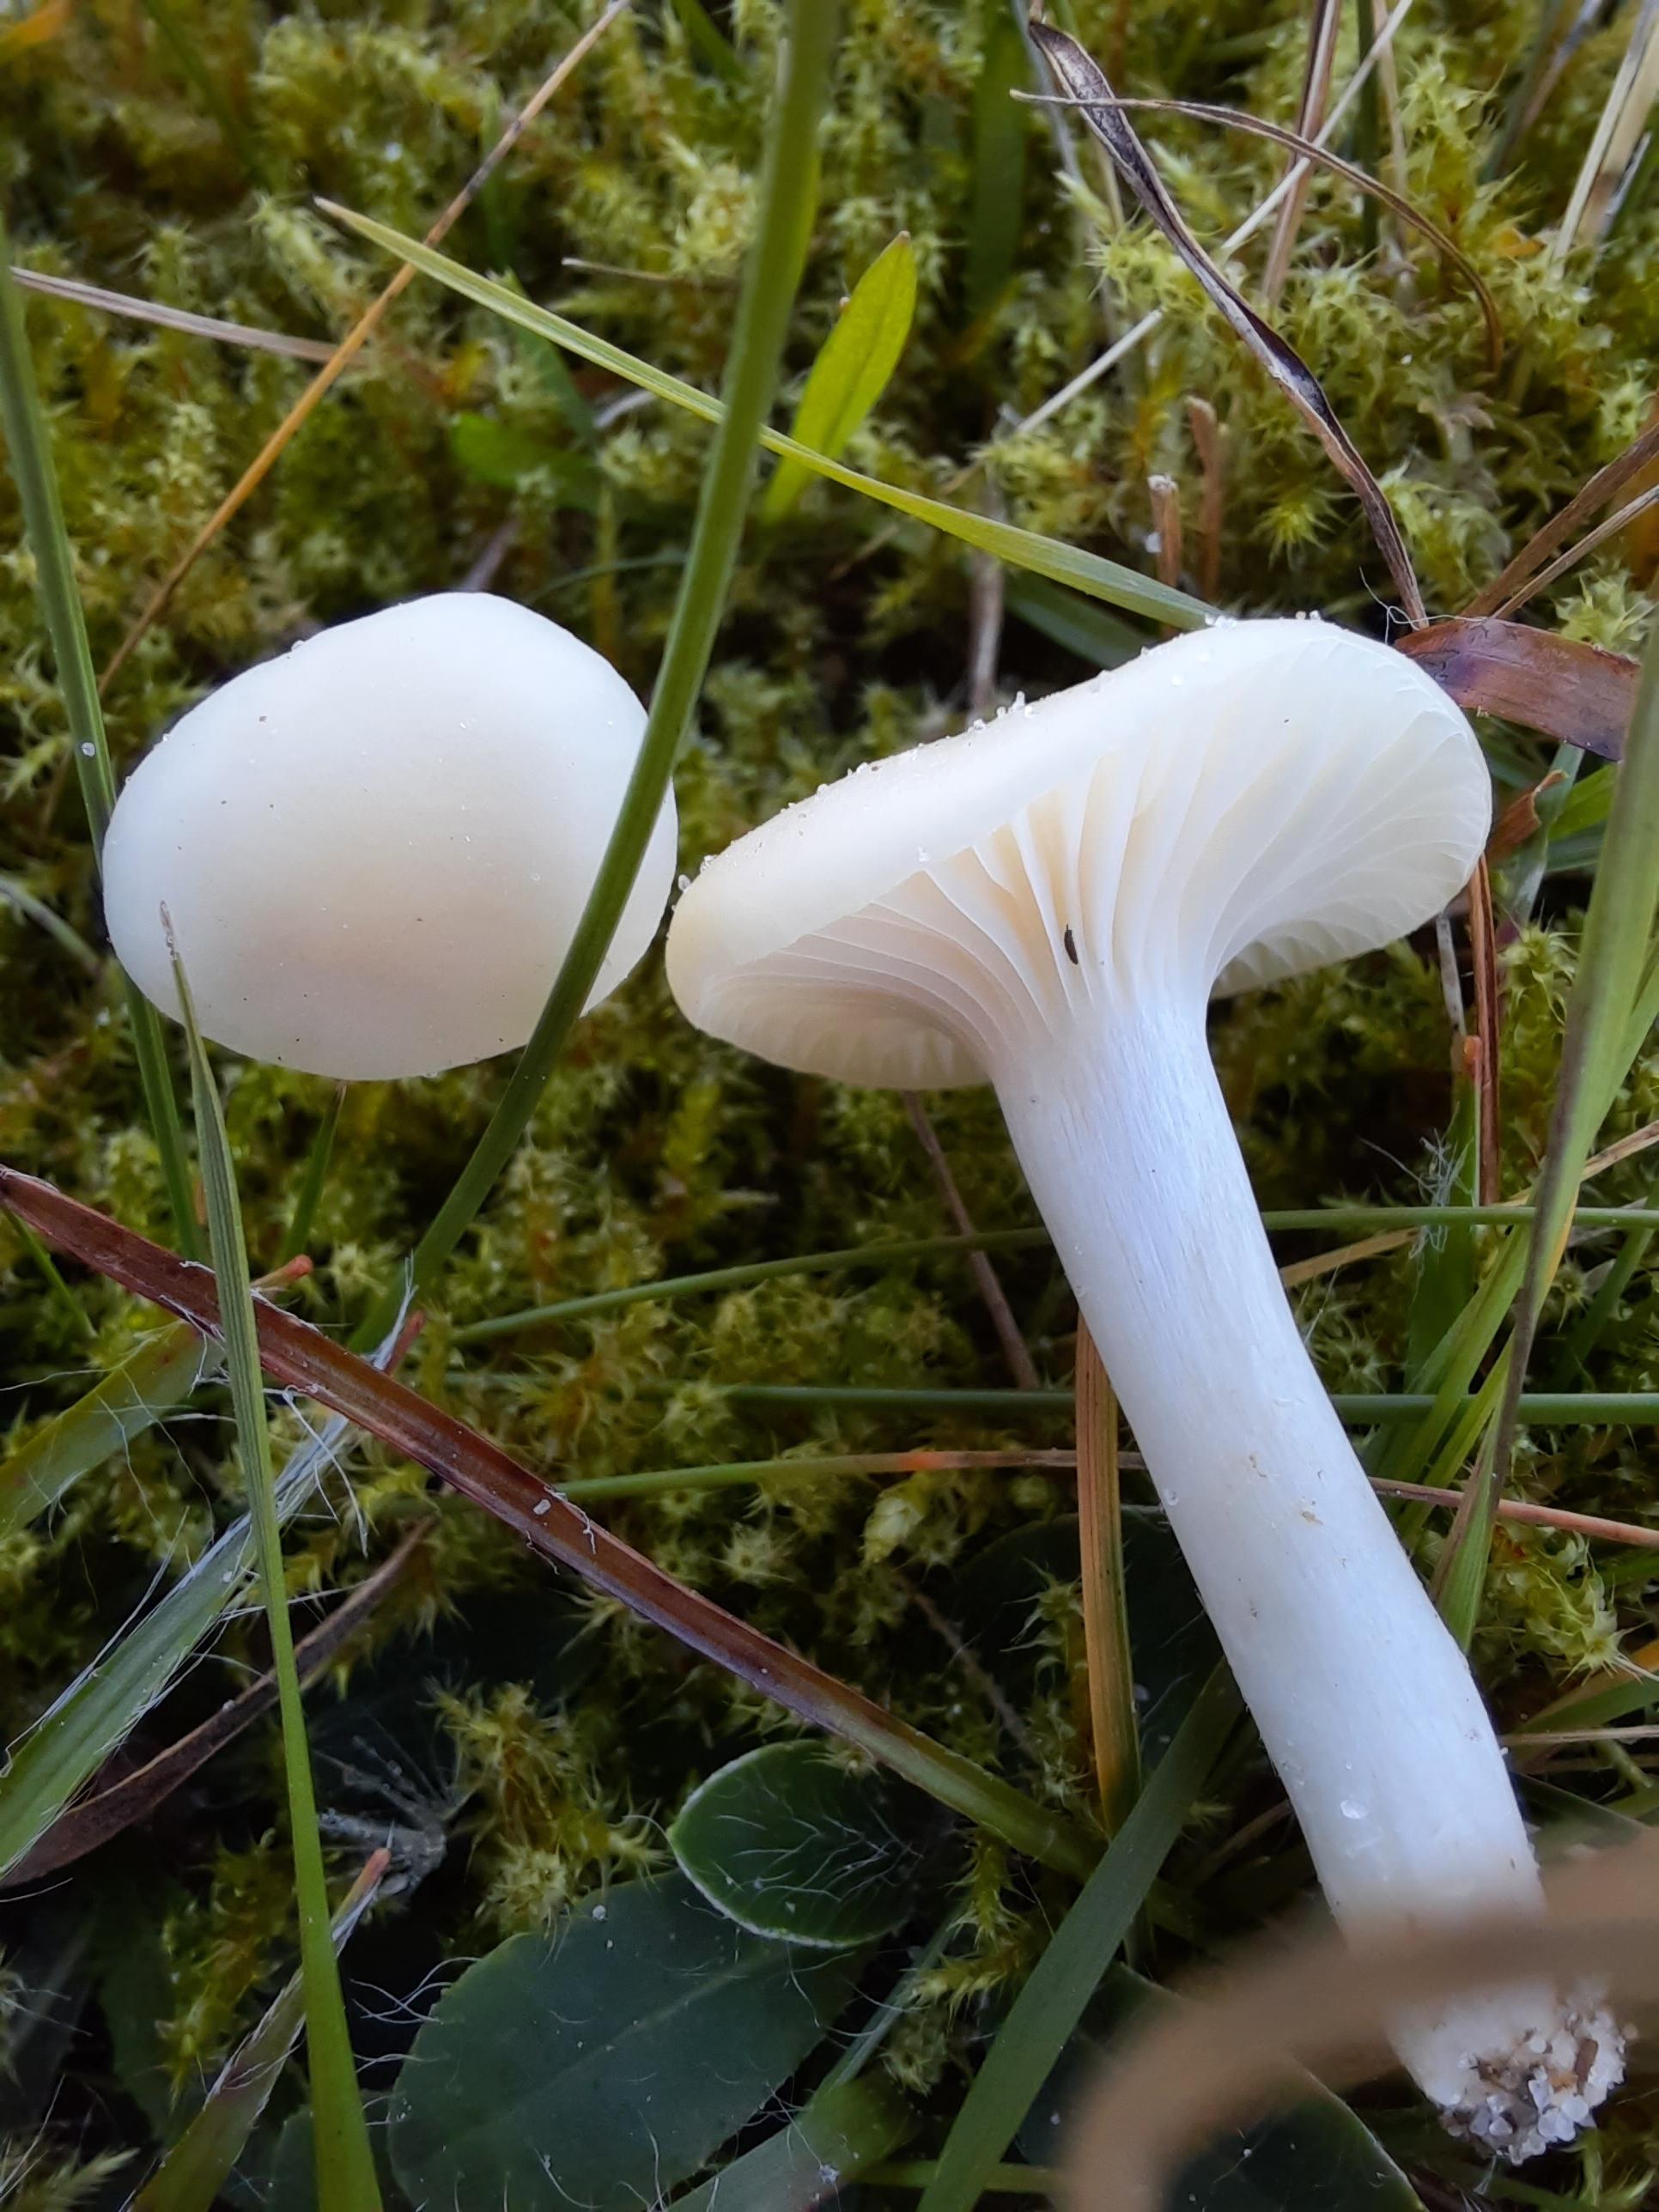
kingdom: Fungi
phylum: Basidiomycota
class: Agaricomycetes
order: Agaricales
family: Hygrophoraceae
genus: Cuphophyllus
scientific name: Cuphophyllus virgineus
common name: snehvid vokshat
